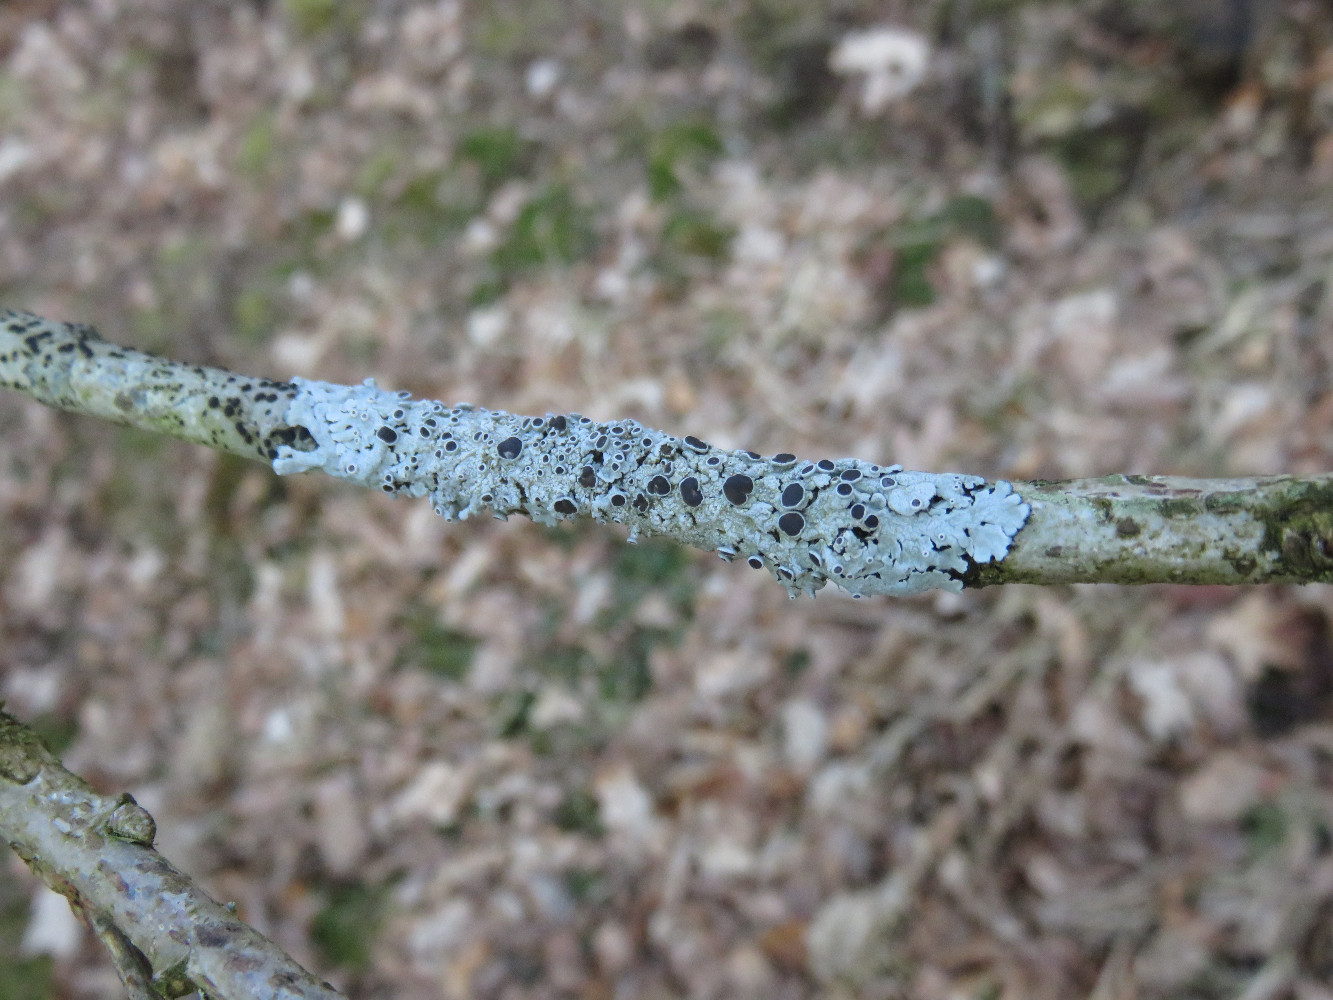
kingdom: Fungi
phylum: Ascomycota
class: Lecanoromycetes
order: Caliciales
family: Physciaceae
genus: Physcia
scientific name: Physcia aipolia
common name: hvidprikket rosetlav
